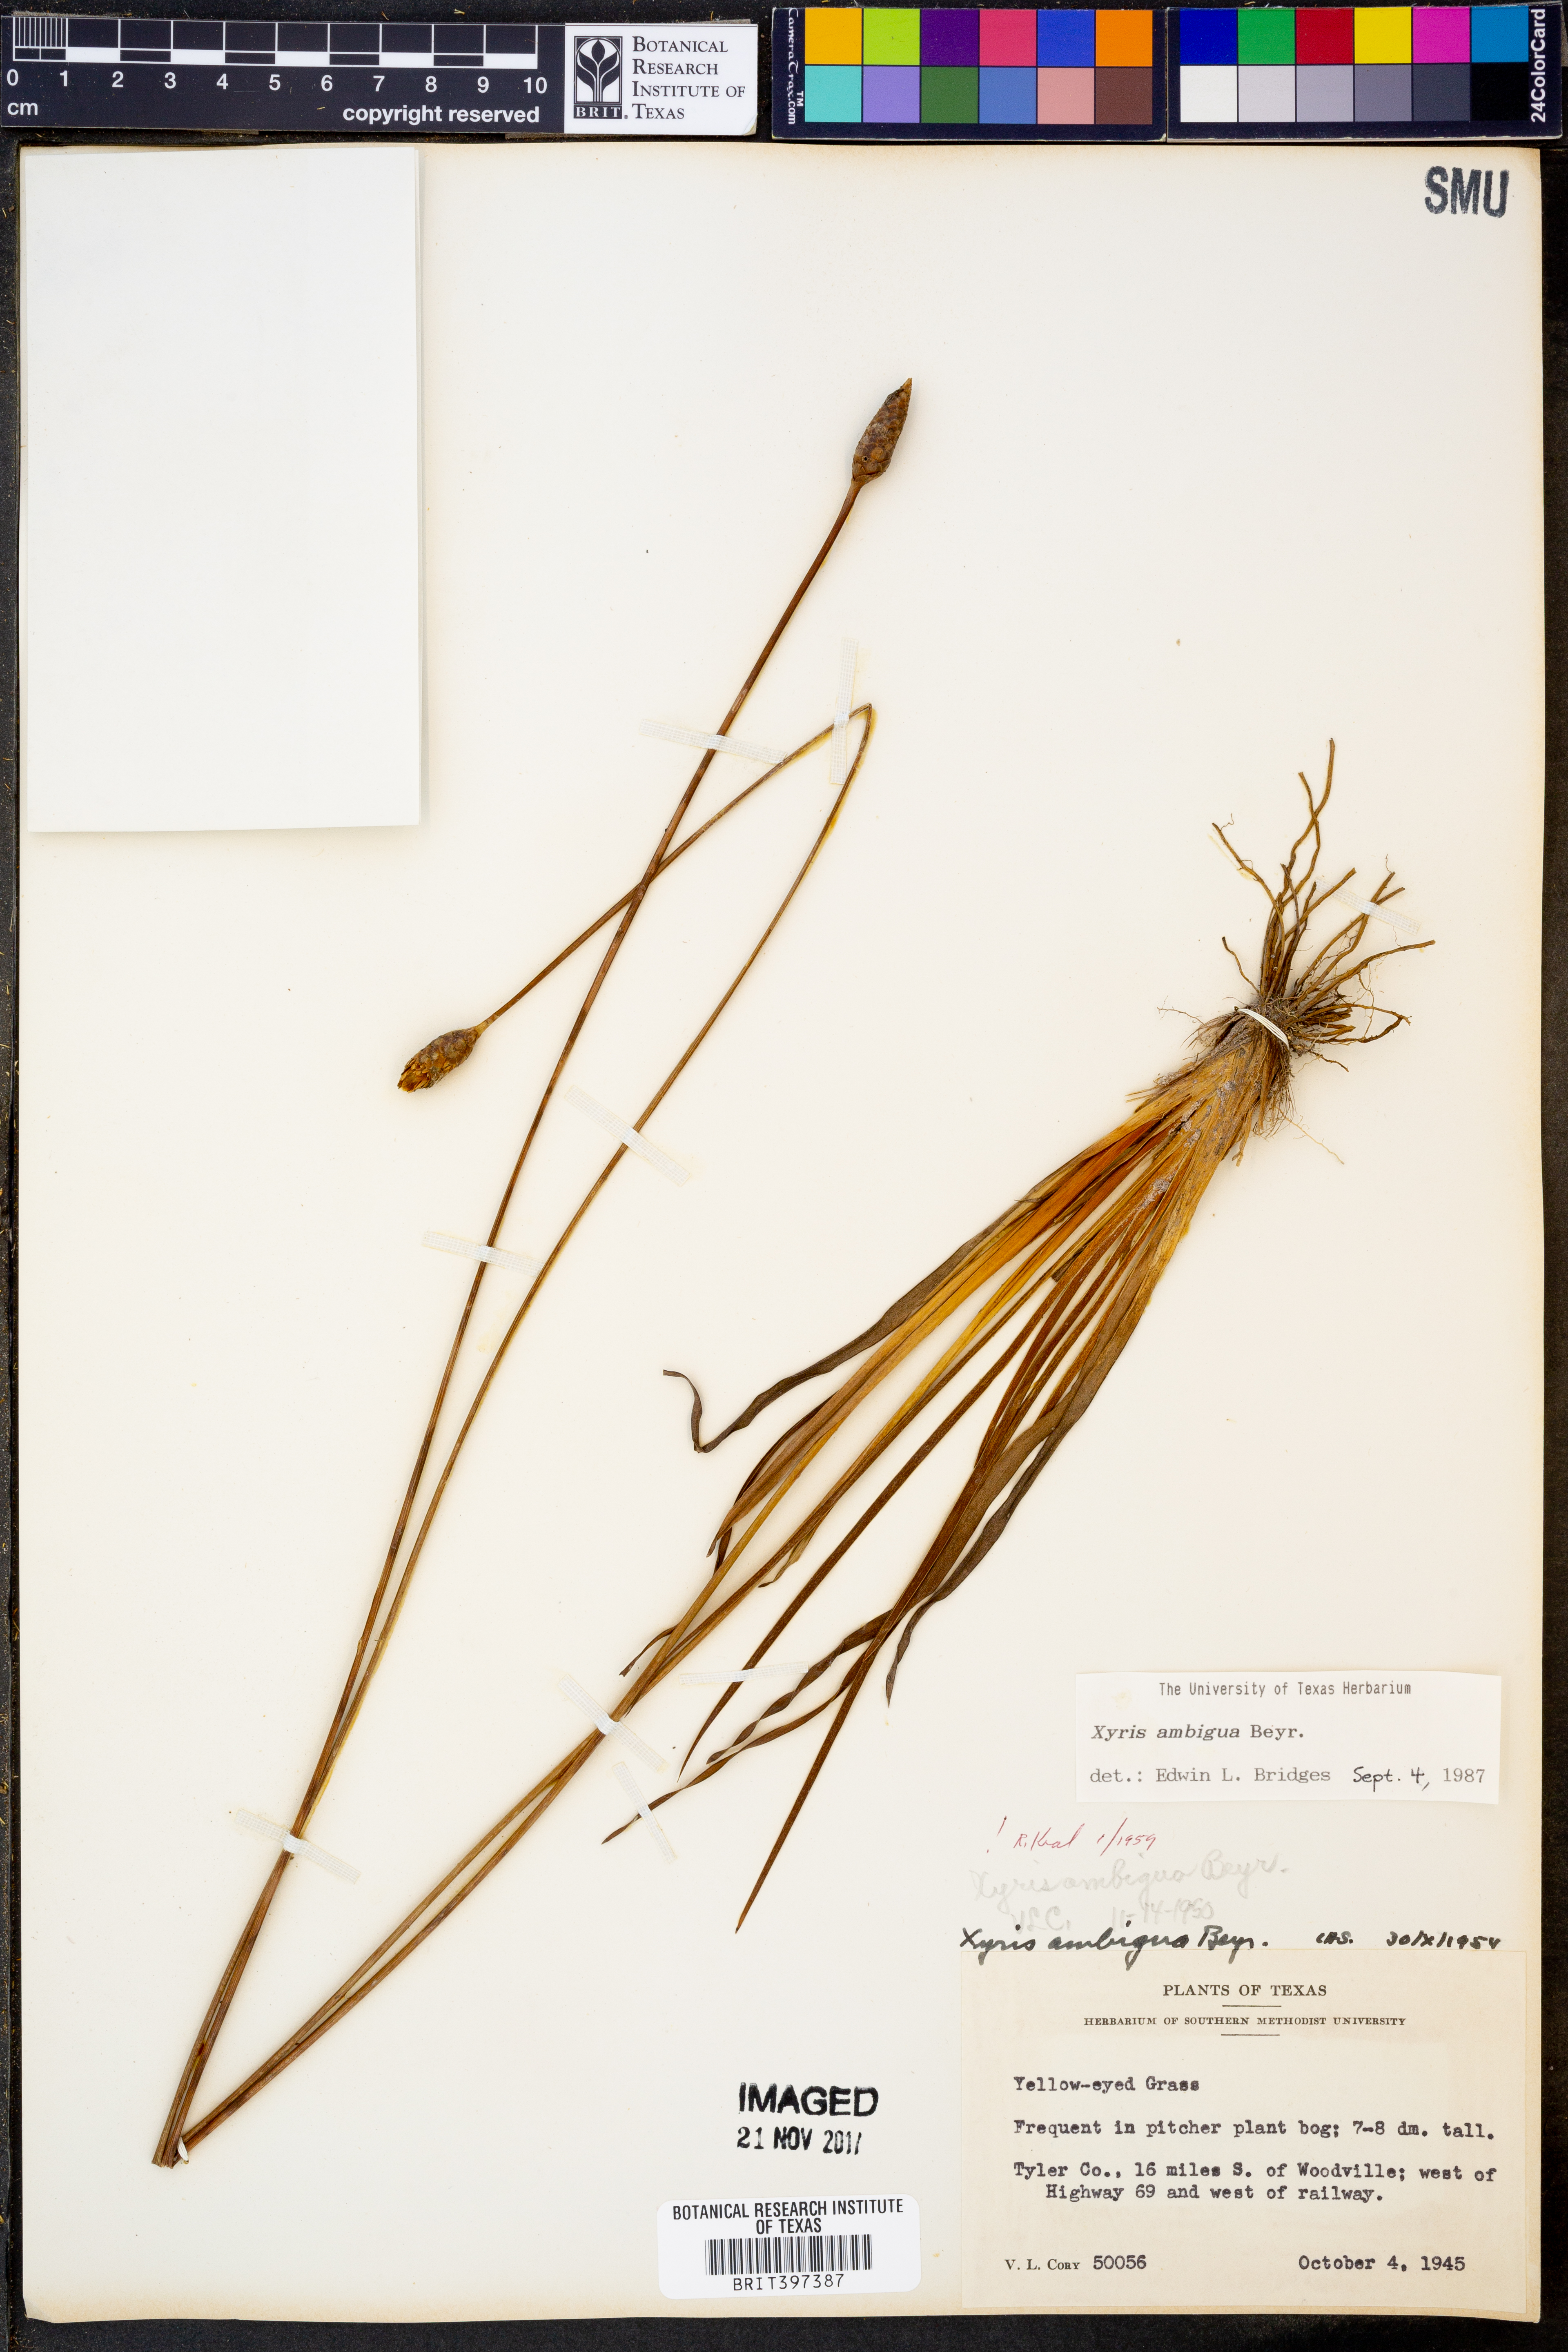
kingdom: Plantae
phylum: Tracheophyta
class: Liliopsida
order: Poales
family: Xyridaceae
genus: Xyris
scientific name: Xyris ambigua
